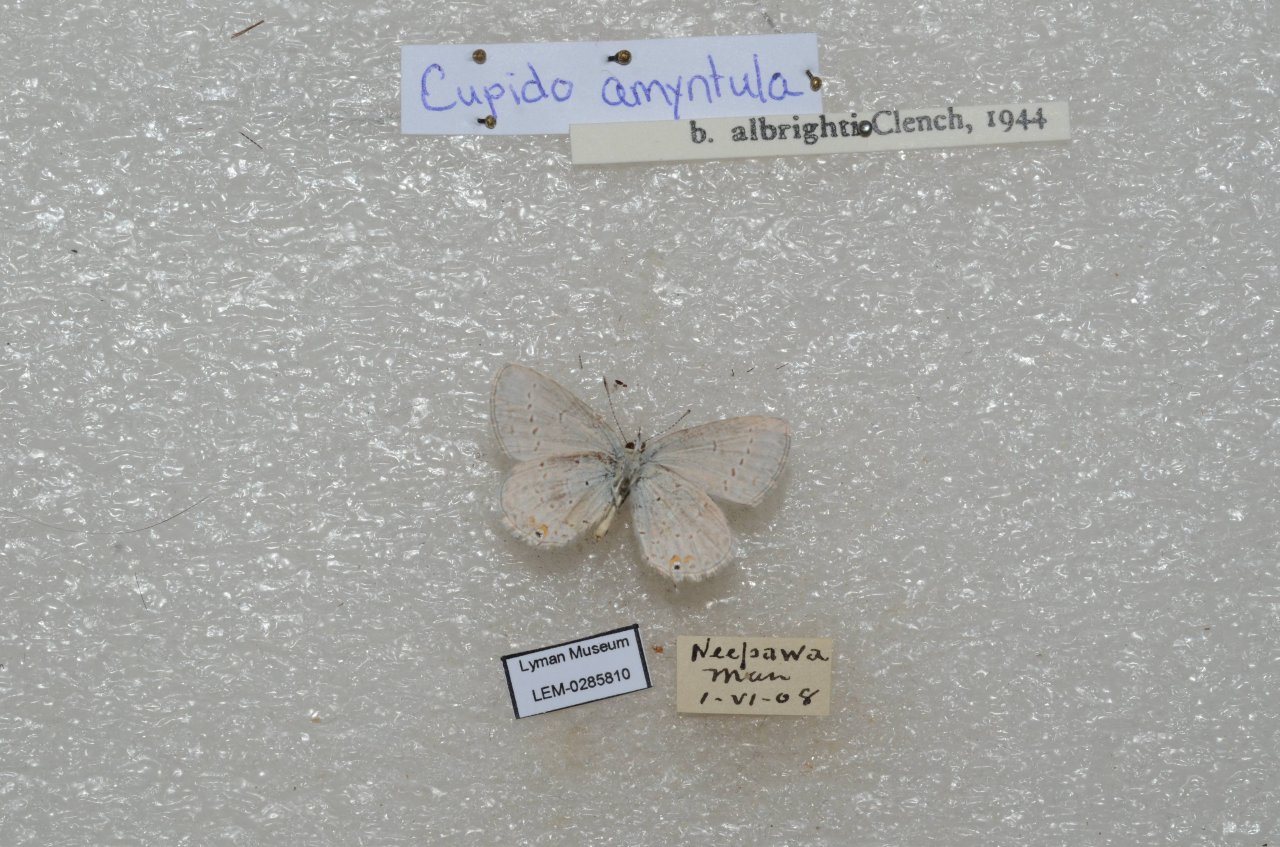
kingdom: Animalia
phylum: Arthropoda
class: Insecta
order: Lepidoptera
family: Lycaenidae
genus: Elkalyce
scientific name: Elkalyce comyntas
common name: Eastern Tailed-Blue
